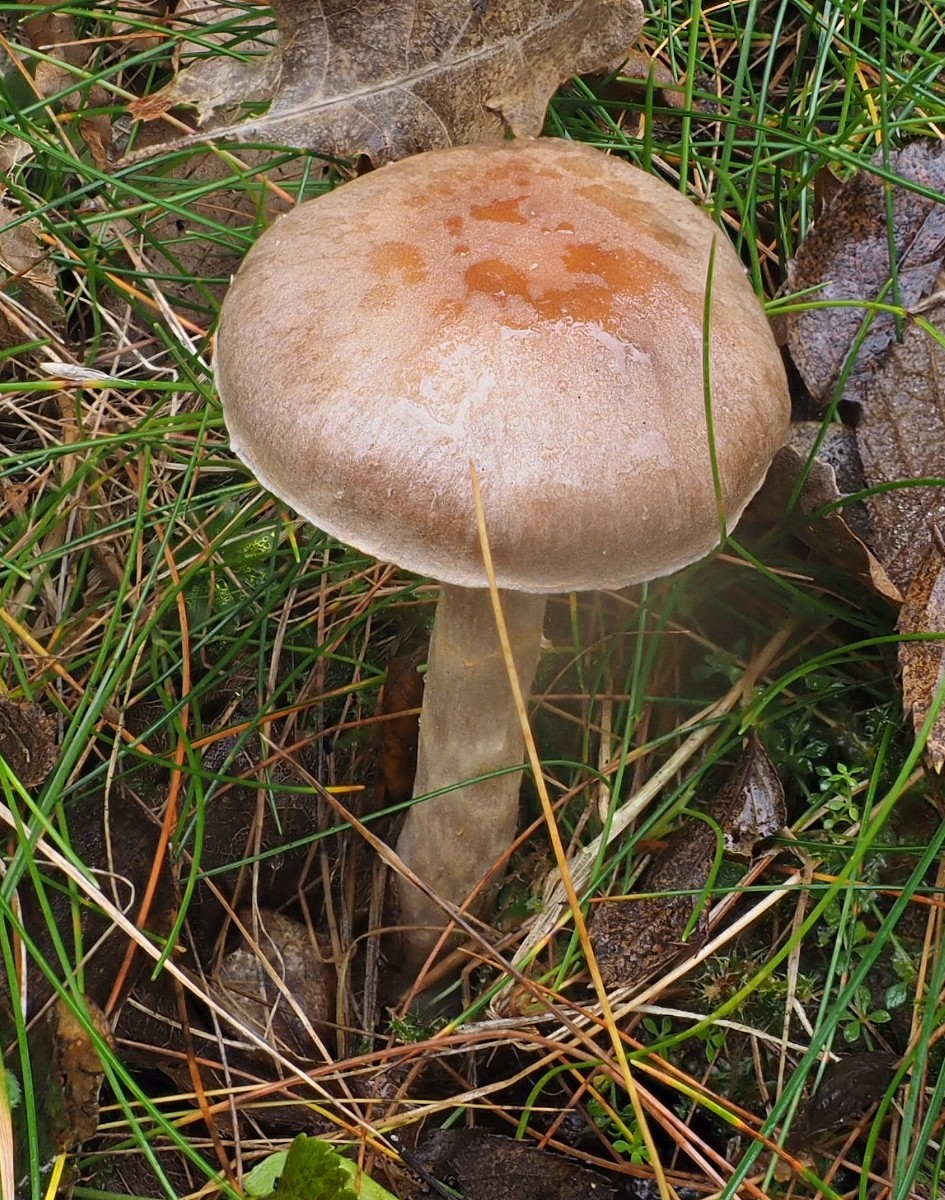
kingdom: Fungi
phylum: Basidiomycota
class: Agaricomycetes
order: Agaricales
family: Cortinariaceae
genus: Cortinarius
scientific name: Cortinarius
